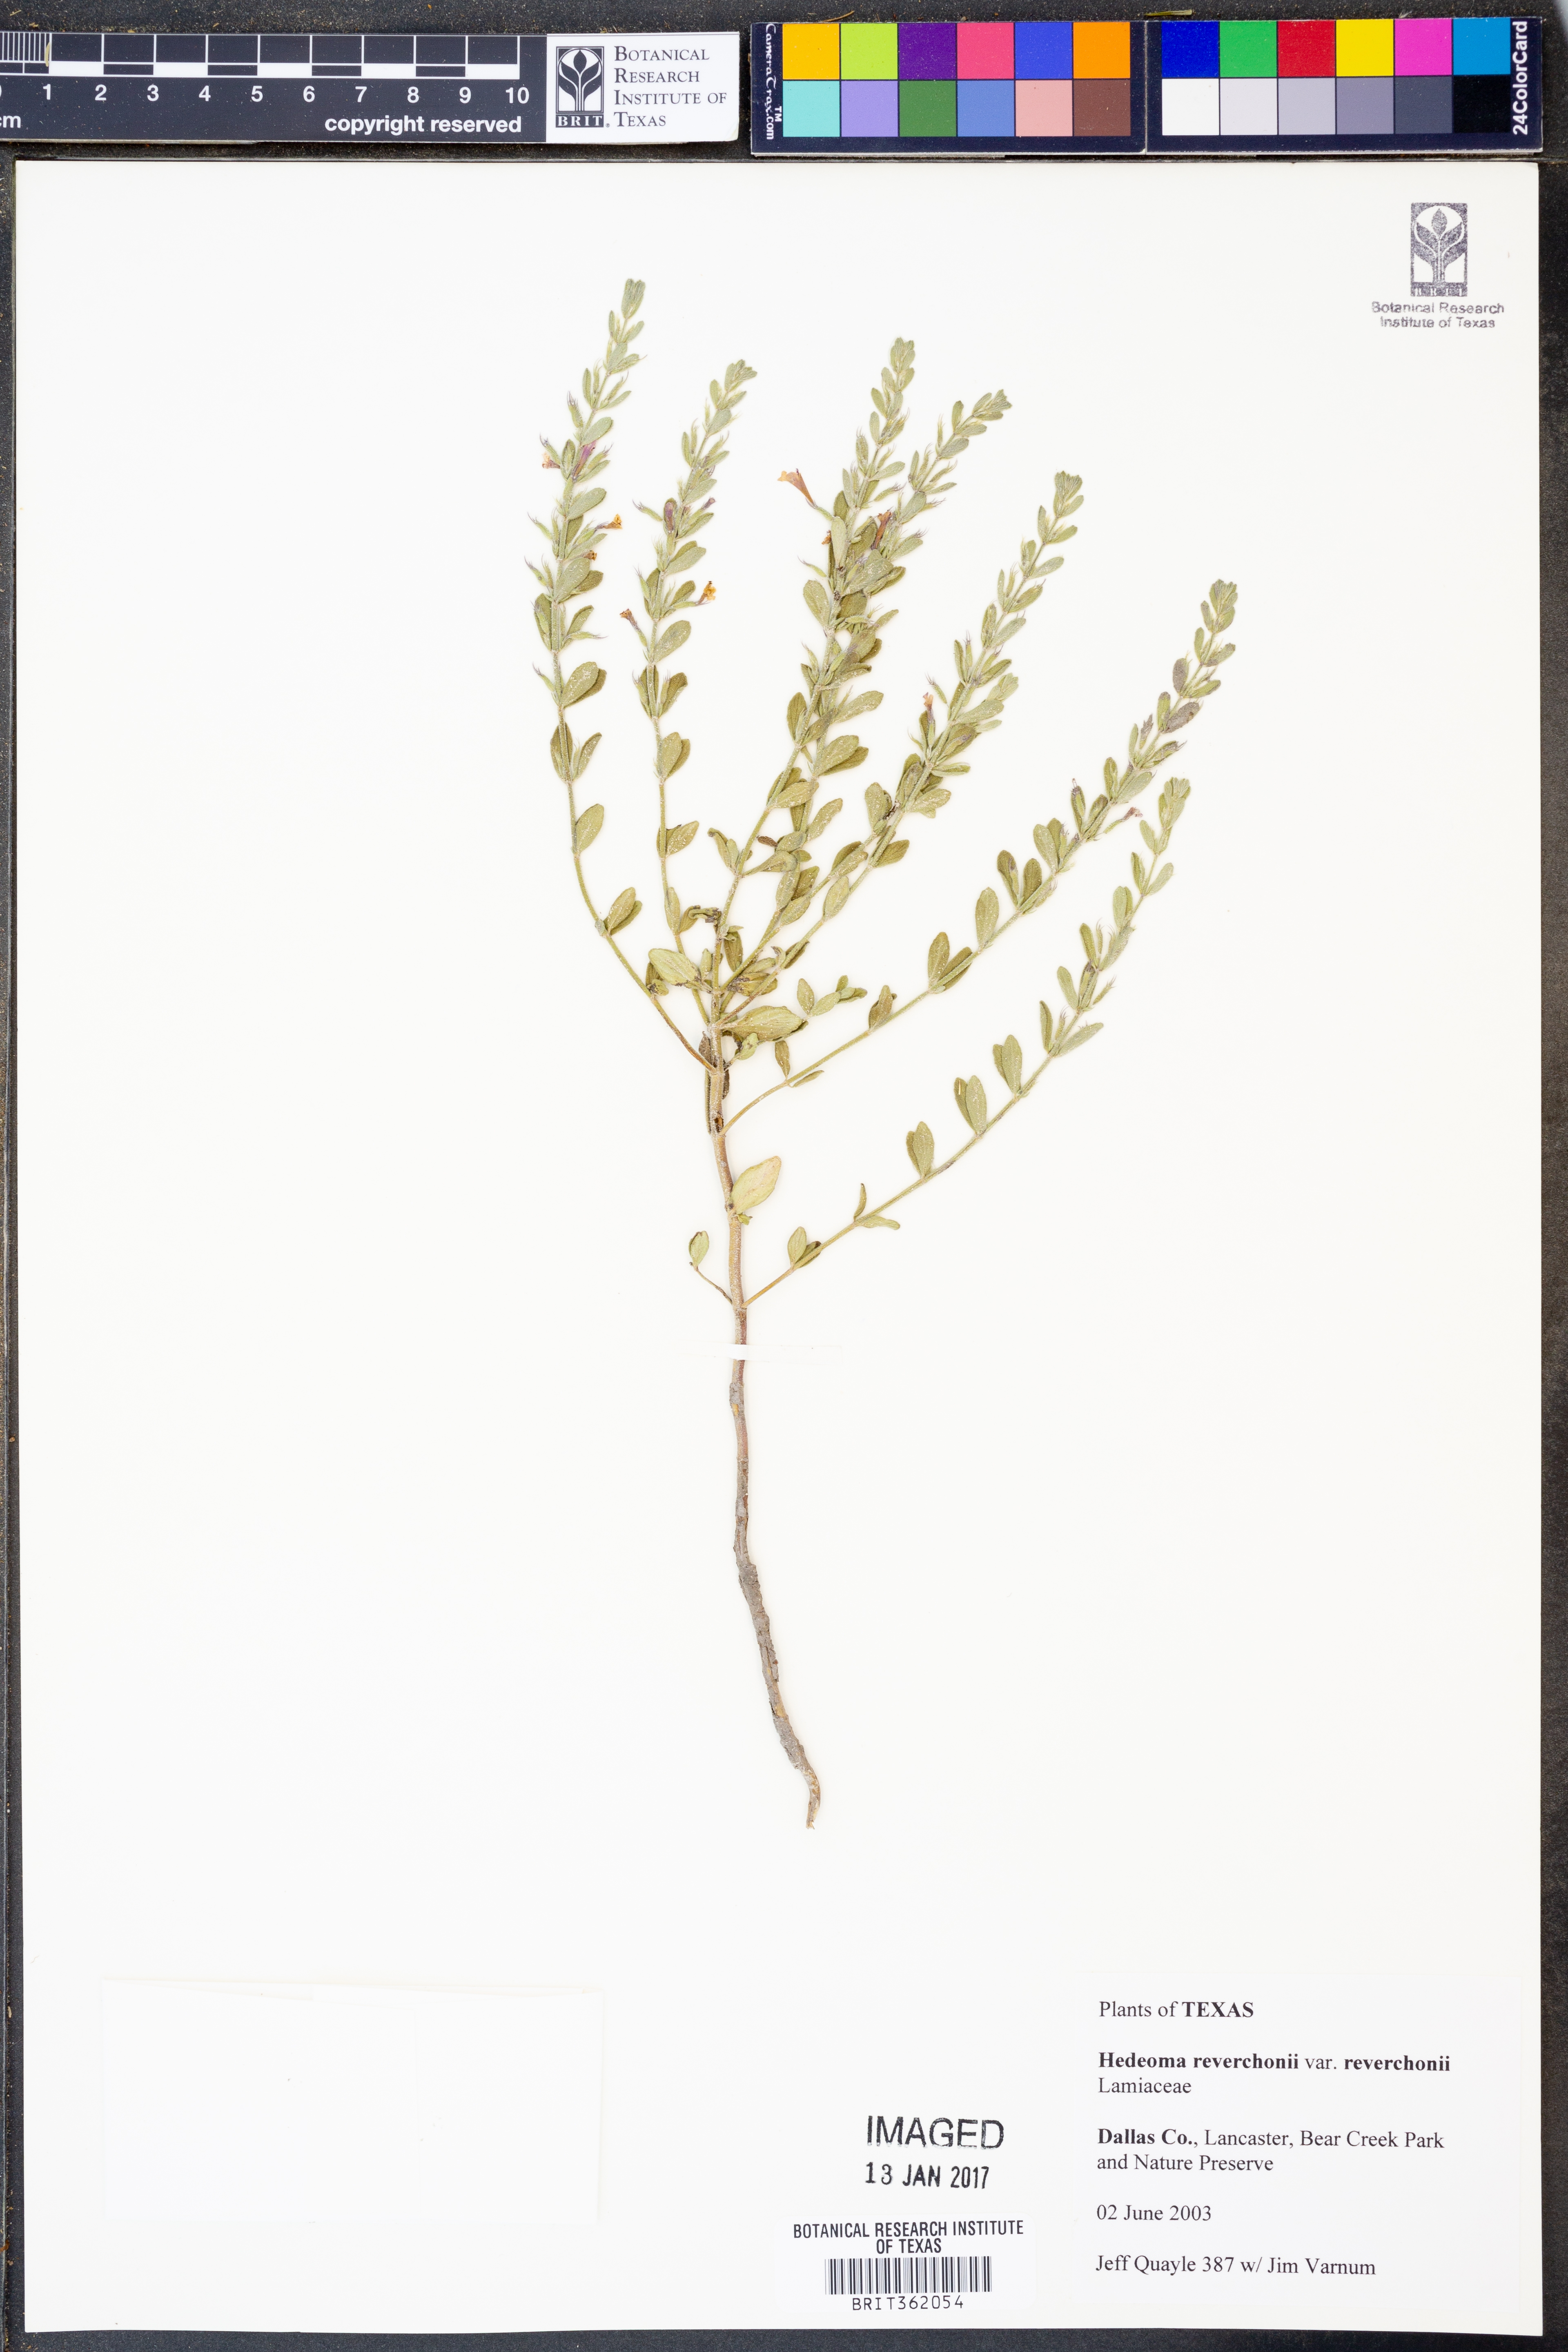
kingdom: Plantae
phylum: Tracheophyta
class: Magnoliopsida
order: Lamiales
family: Lamiaceae
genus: Hedeoma
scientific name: Hedeoma reverchonii
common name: Reverchon's false penny-royal
